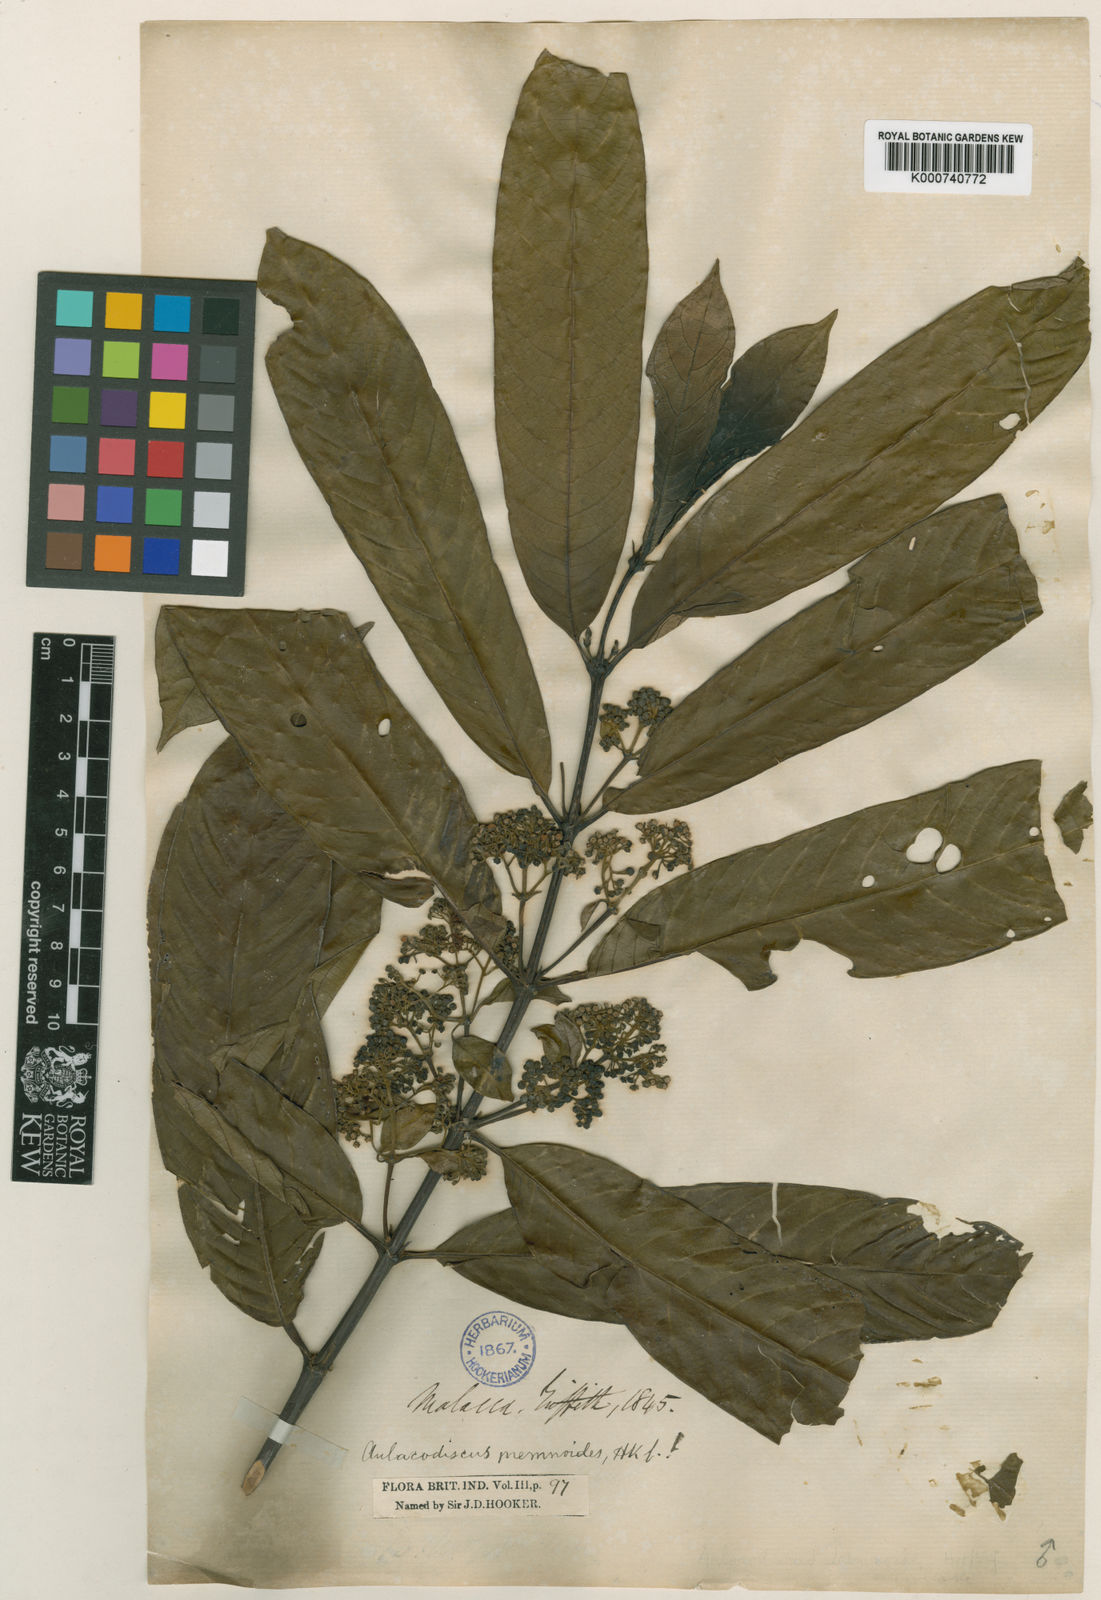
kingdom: Plantae
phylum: Tracheophyta
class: Magnoliopsida
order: Gentianales
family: Rubiaceae
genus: Urophyllum
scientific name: Urophyllum enneandrum
